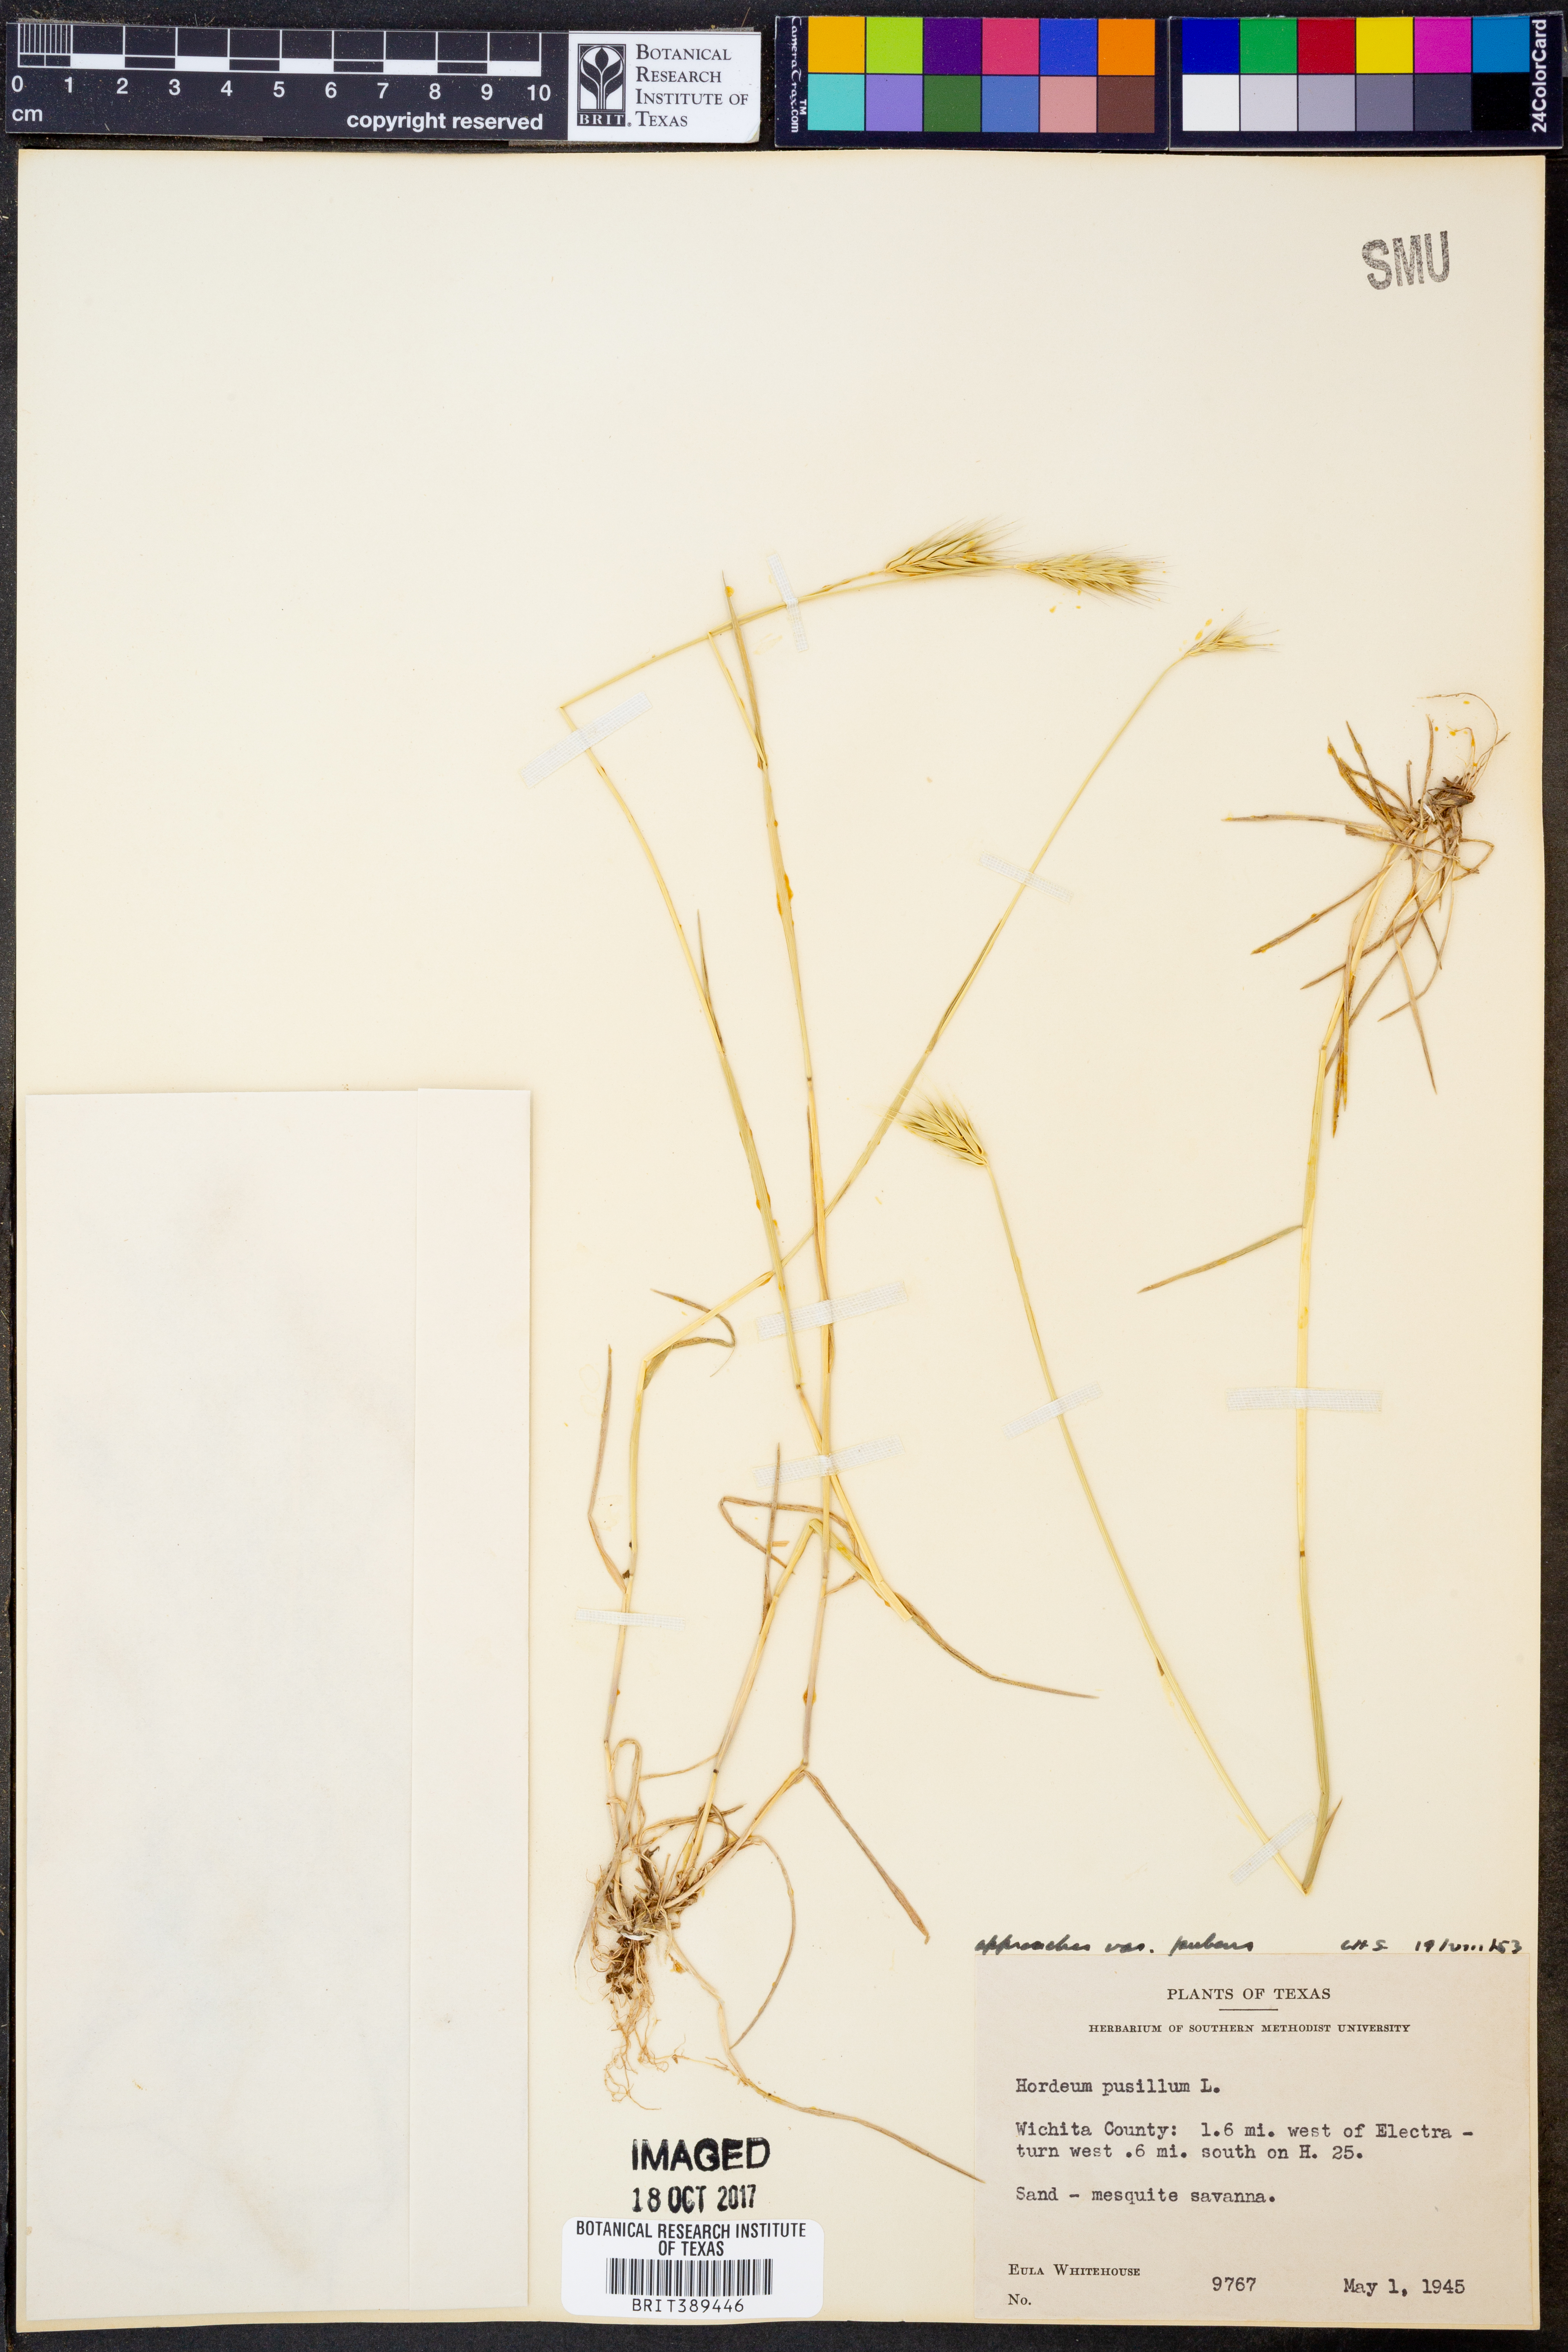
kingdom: Plantae
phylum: Tracheophyta
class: Liliopsida
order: Poales
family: Poaceae
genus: Hordeum
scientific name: Hordeum pusillum
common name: Little barley
